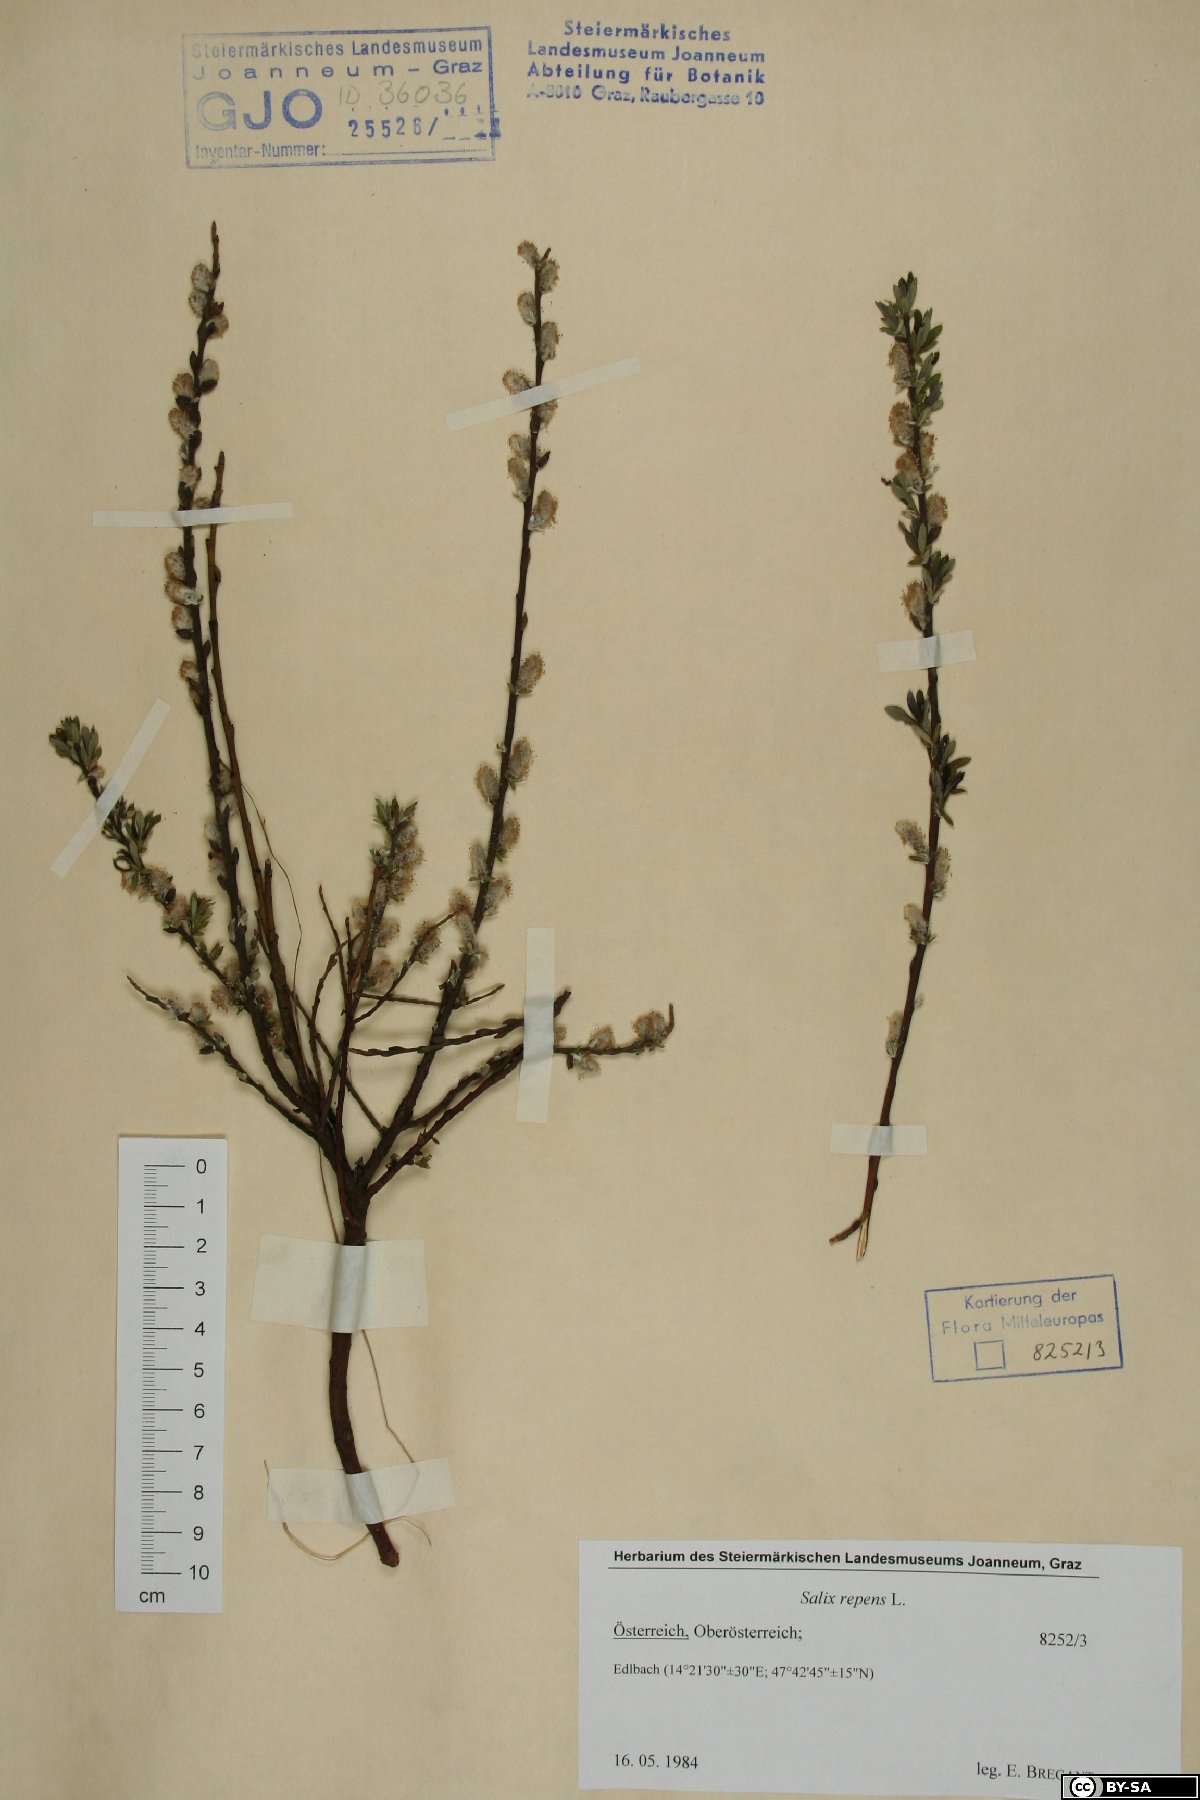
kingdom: Plantae
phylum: Tracheophyta
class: Magnoliopsida
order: Malpighiales
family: Salicaceae
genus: Salix
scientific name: Salix repens
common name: Creeping willow
